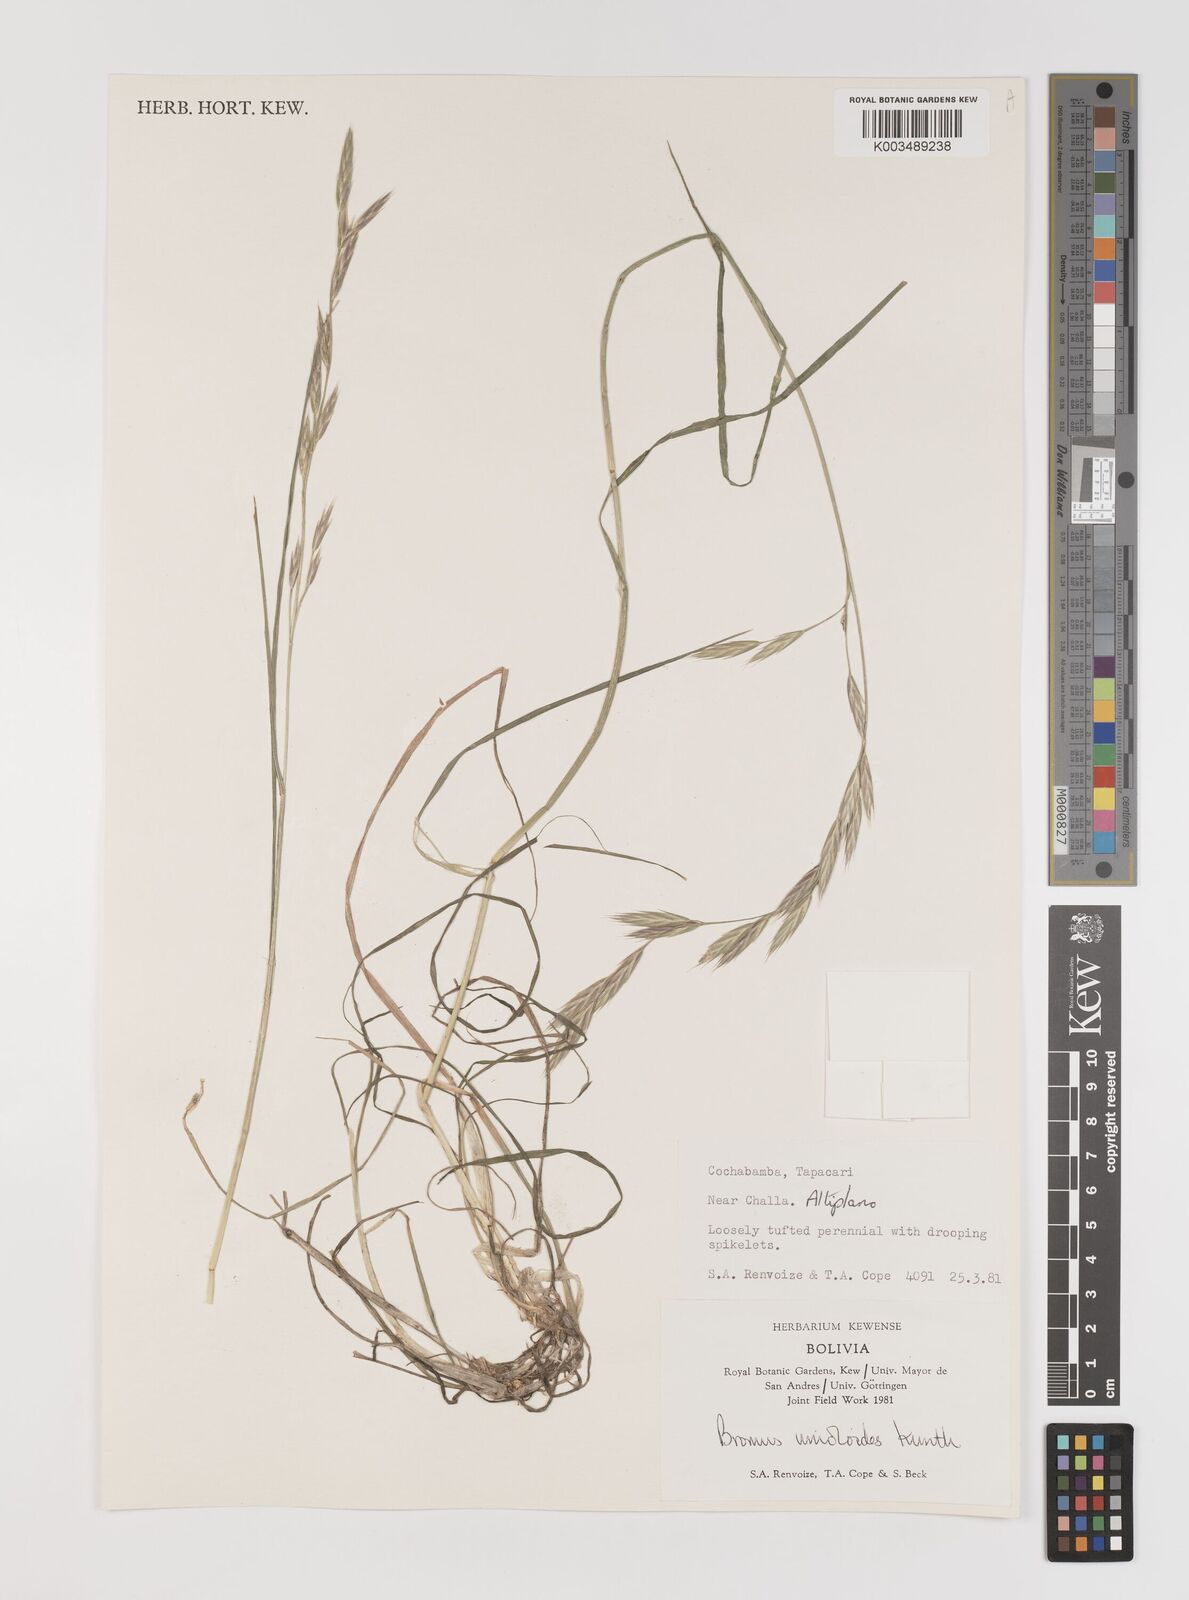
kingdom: Plantae
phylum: Tracheophyta
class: Liliopsida
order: Poales
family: Poaceae
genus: Bromus
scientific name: Bromus catharticus
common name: Rescuegrass
